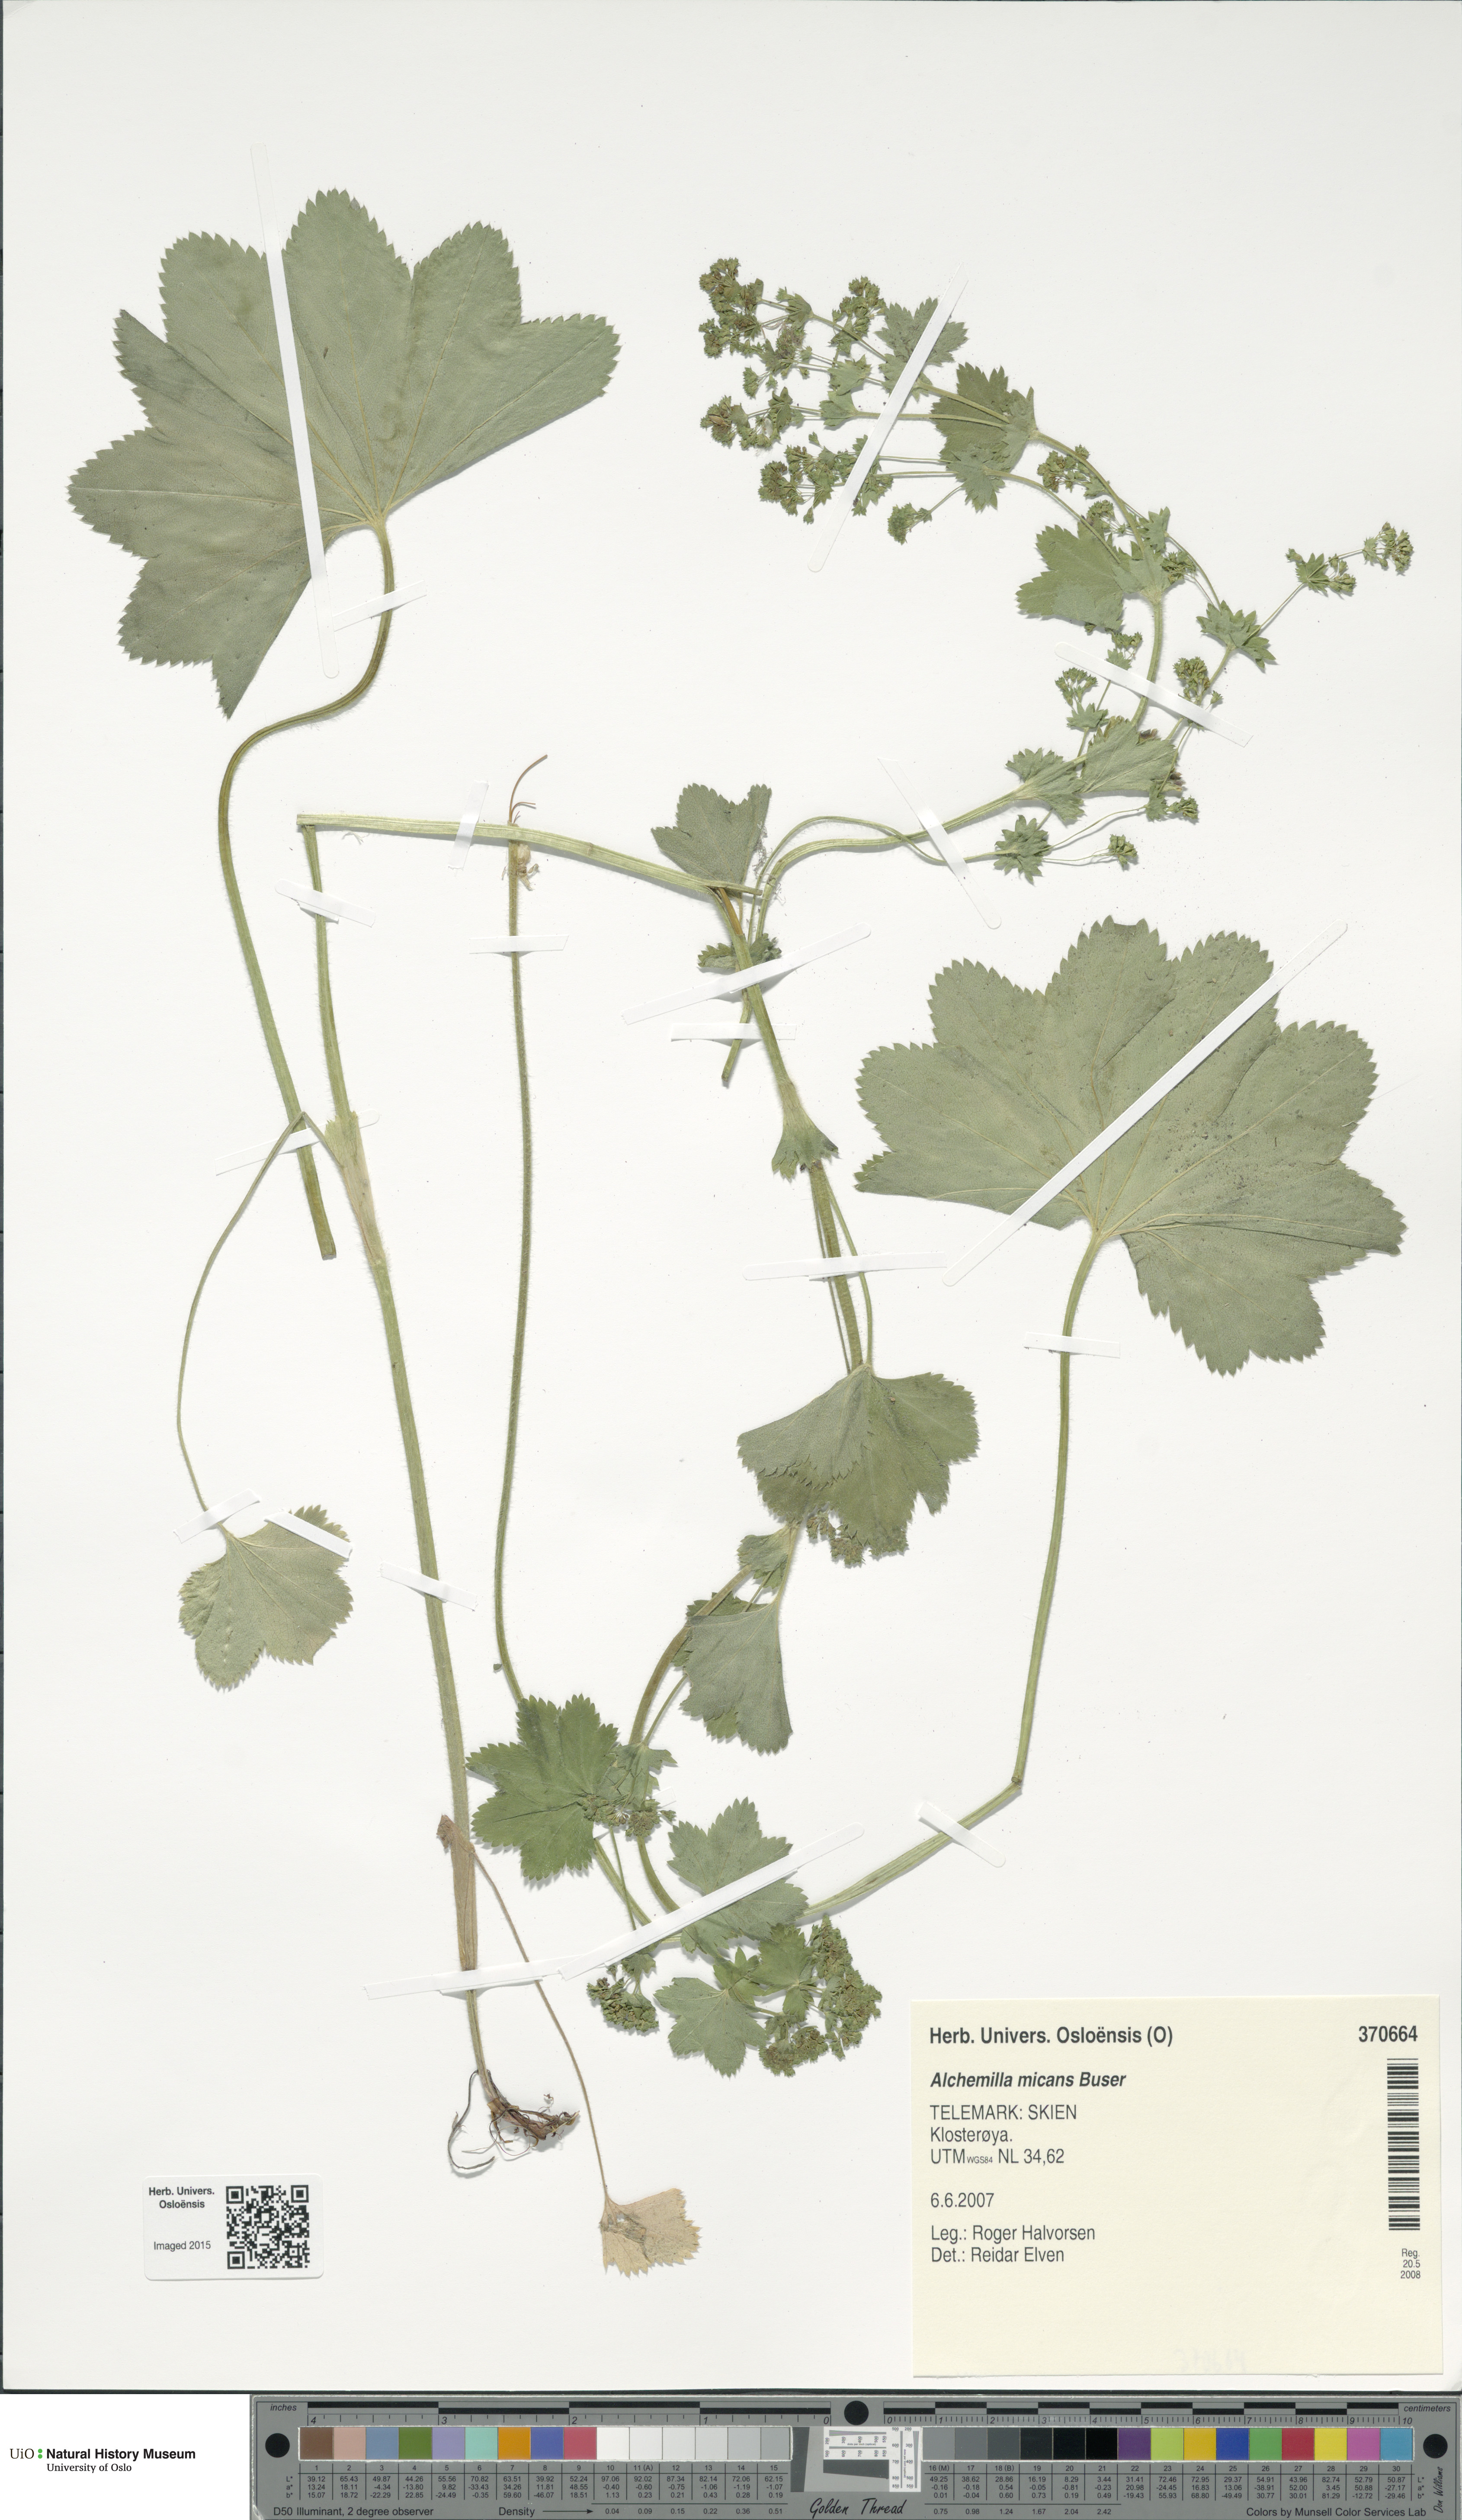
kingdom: Plantae
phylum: Tracheophyta
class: Magnoliopsida
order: Rosales
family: Rosaceae
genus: Alchemilla
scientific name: Alchemilla micans
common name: Gleaming lady's mantle
